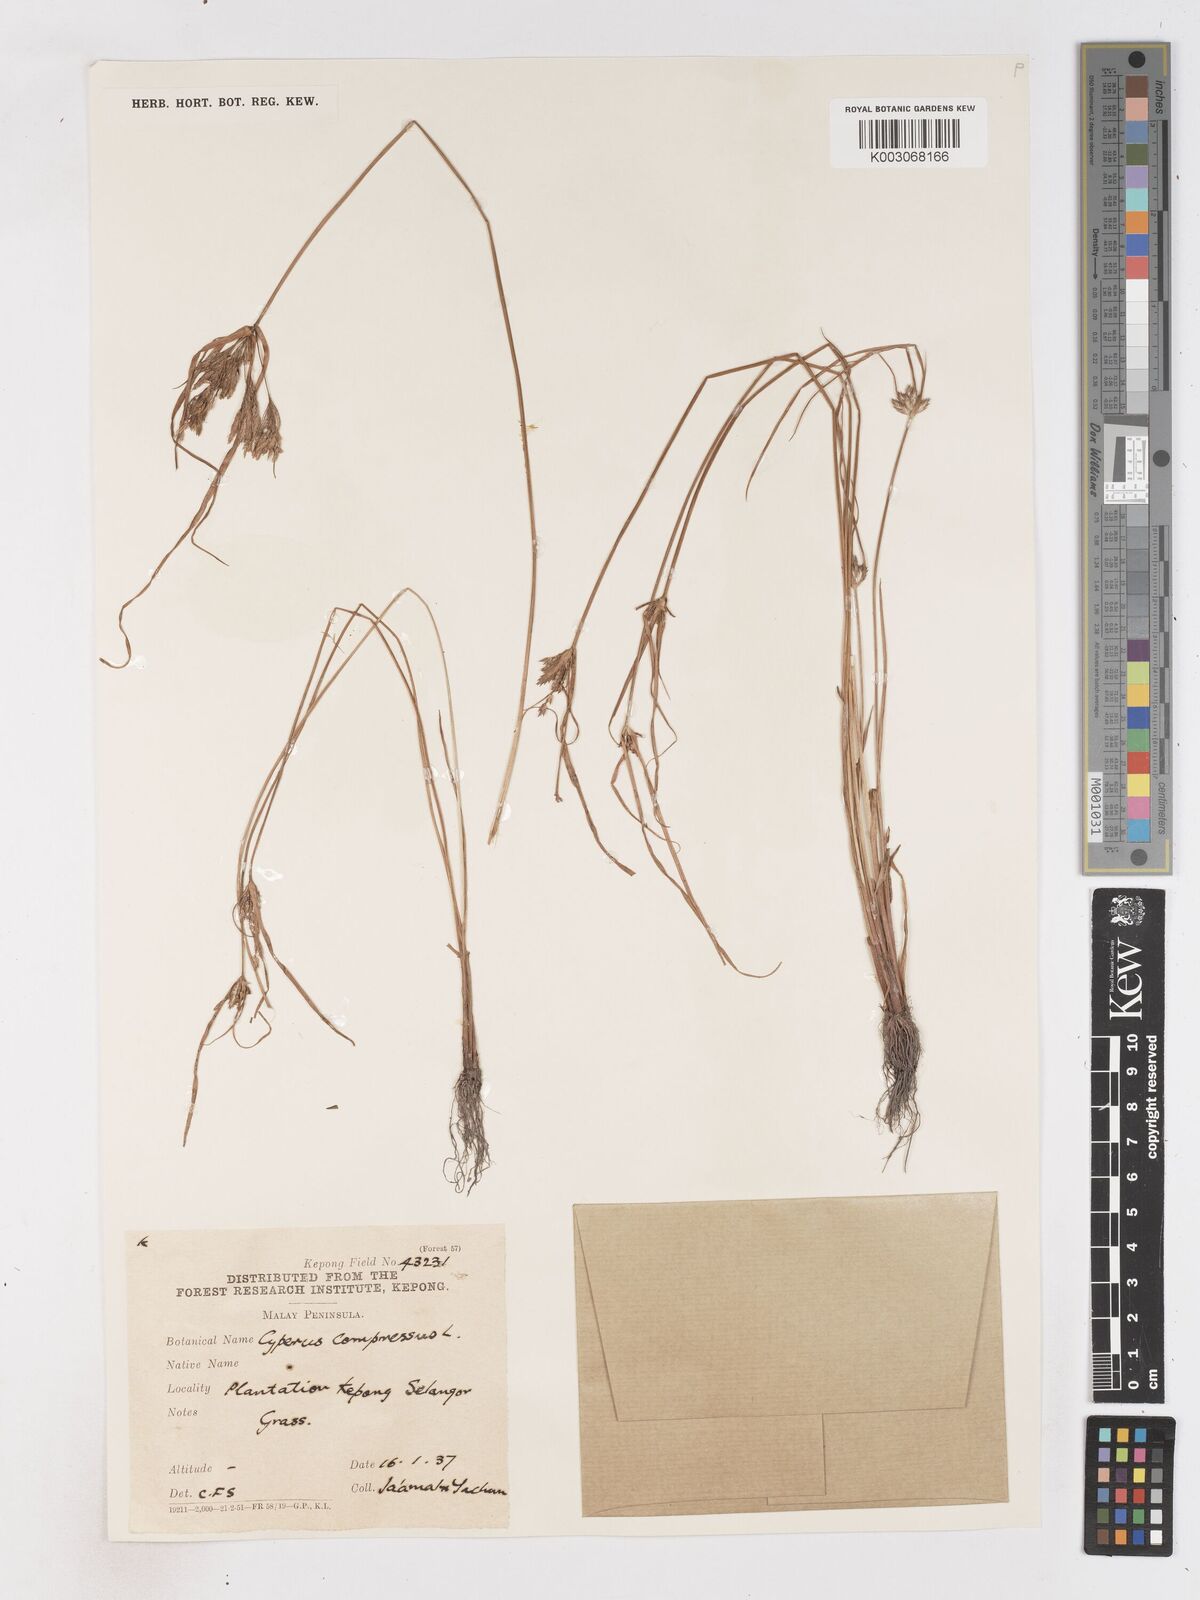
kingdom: Plantae
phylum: Tracheophyta
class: Liliopsida
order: Poales
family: Cyperaceae
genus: Cyperus
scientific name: Cyperus compressus
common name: Poorland flatsedge
